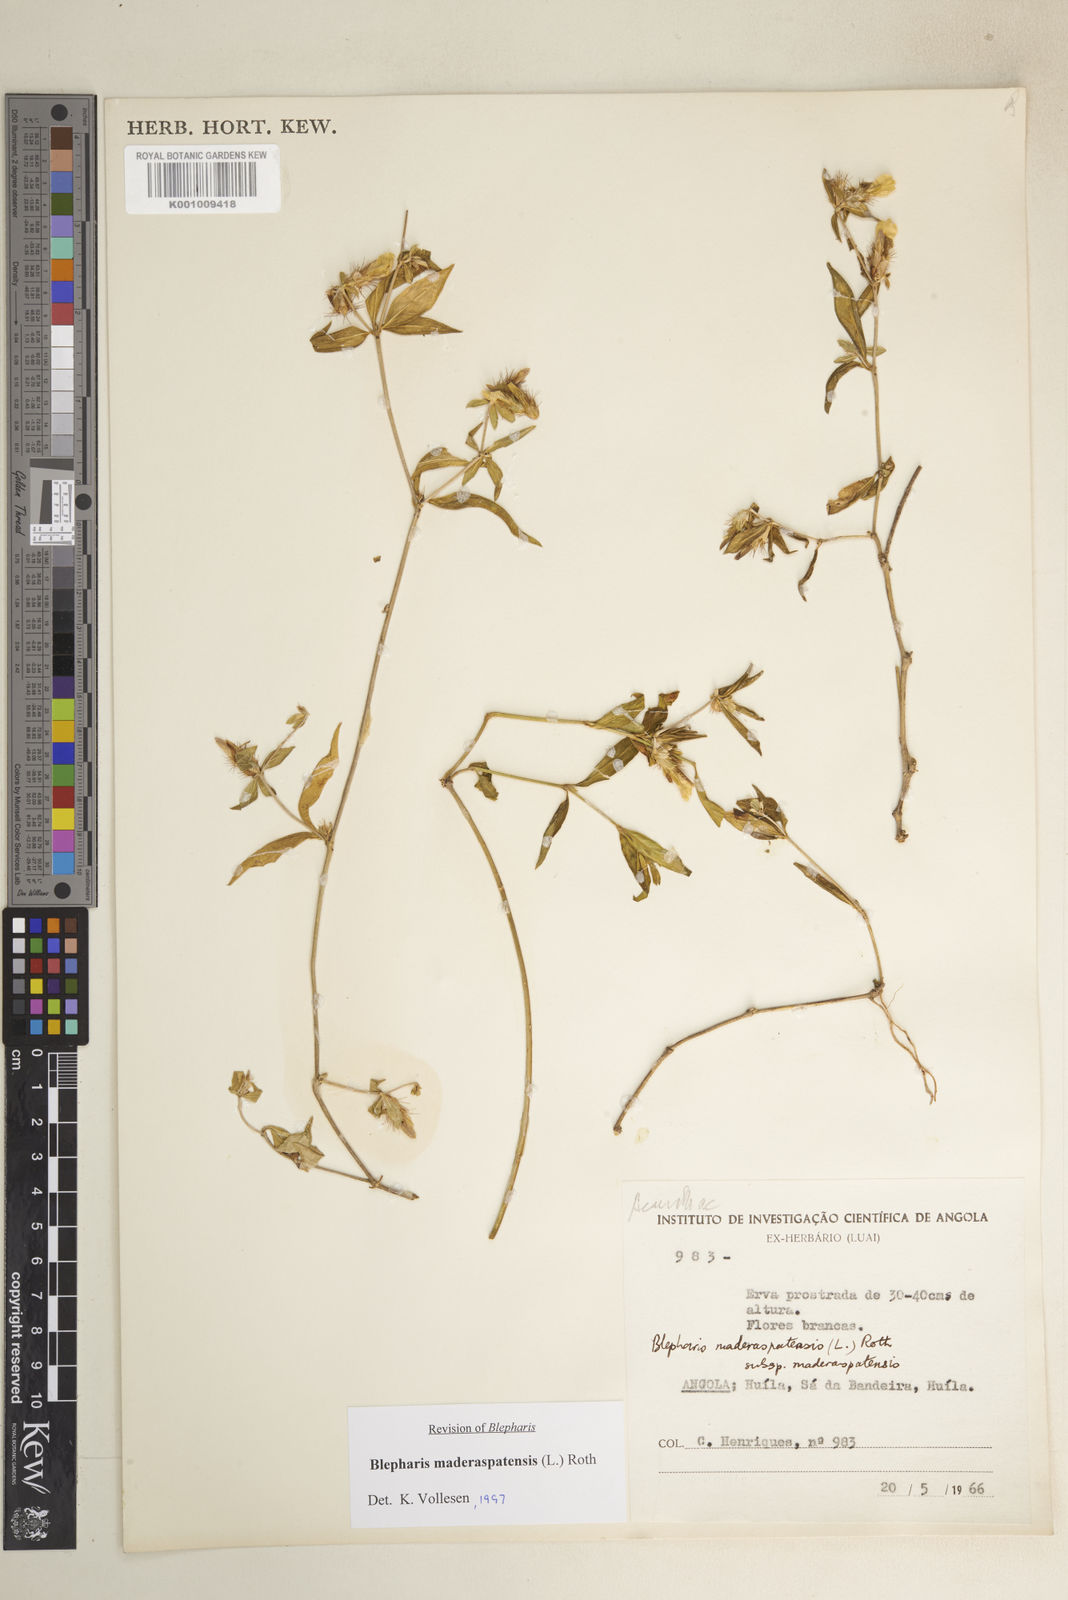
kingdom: Plantae
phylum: Tracheophyta
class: Magnoliopsida
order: Lamiales
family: Acanthaceae
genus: Blepharis
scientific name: Blepharis maderaspatensis
